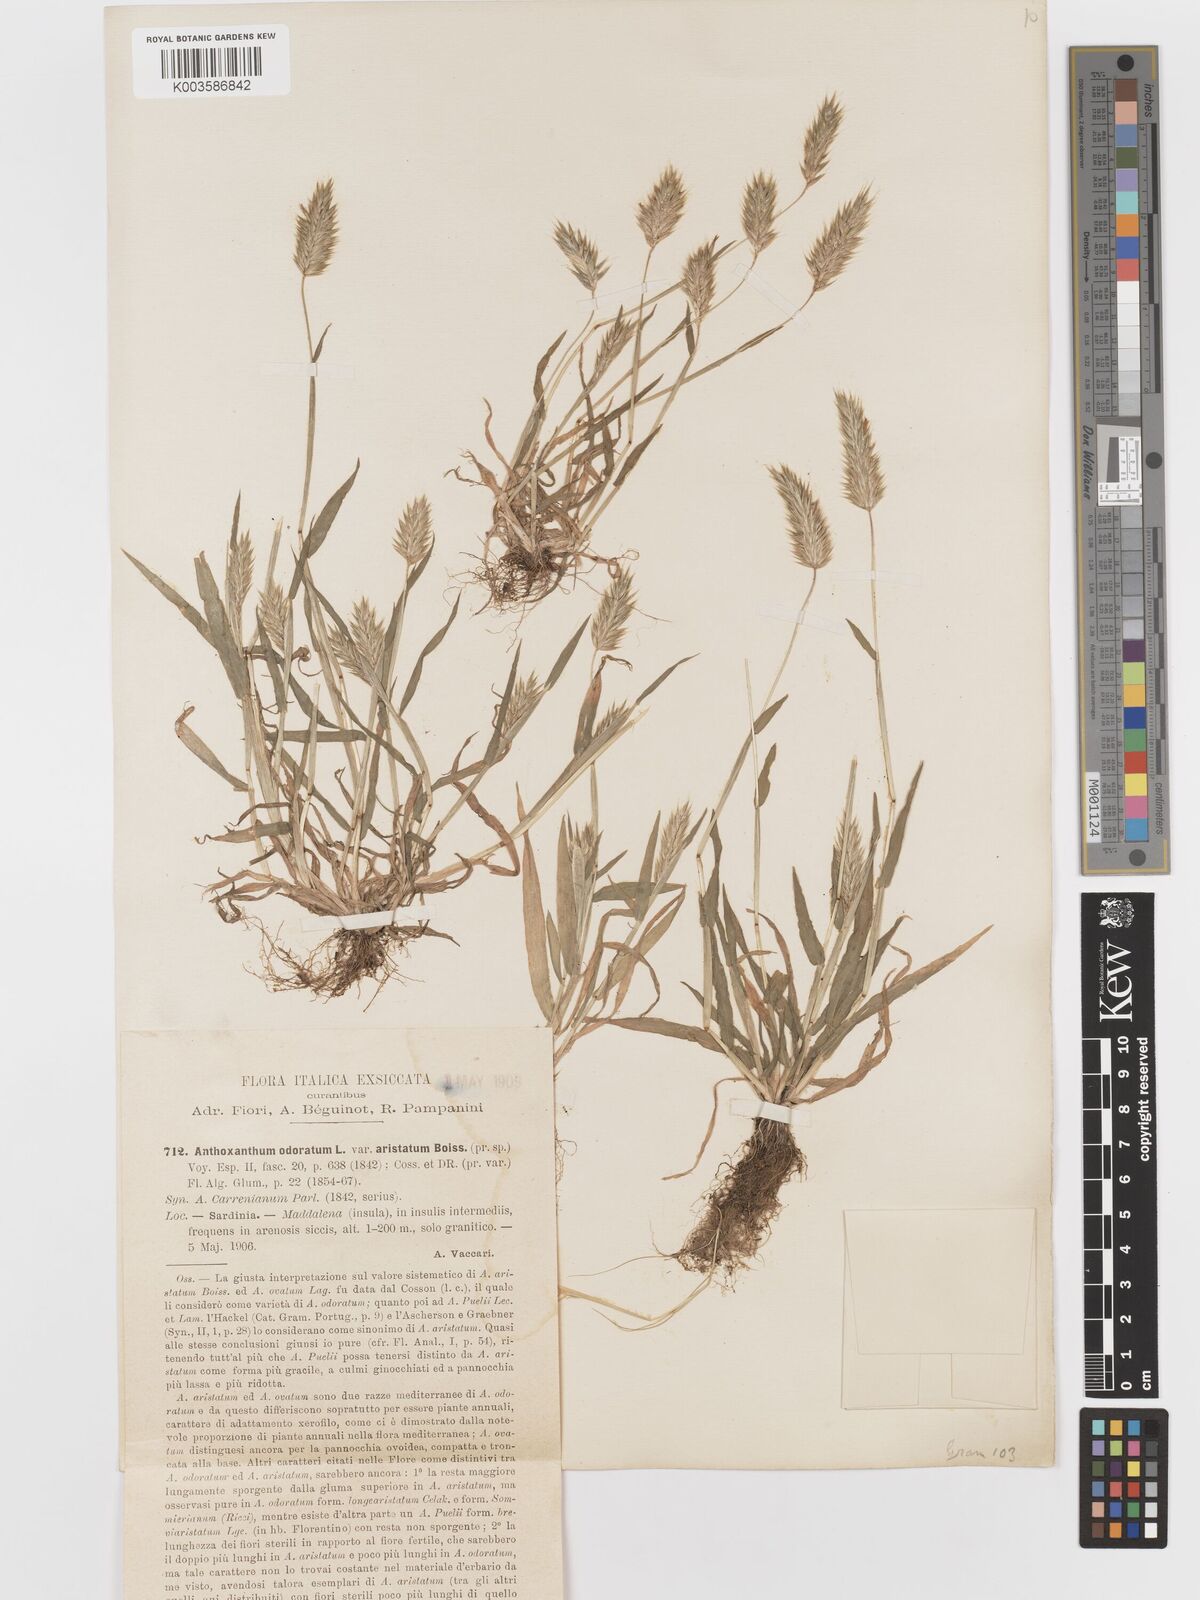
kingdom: Plantae
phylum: Tracheophyta
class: Liliopsida
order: Poales
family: Poaceae
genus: Anthoxanthum
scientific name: Anthoxanthum
